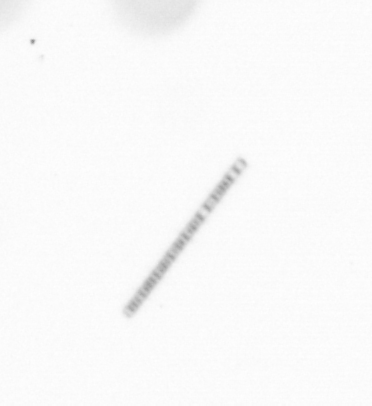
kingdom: Chromista
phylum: Ochrophyta
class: Bacillariophyceae
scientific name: Bacillariophyceae
